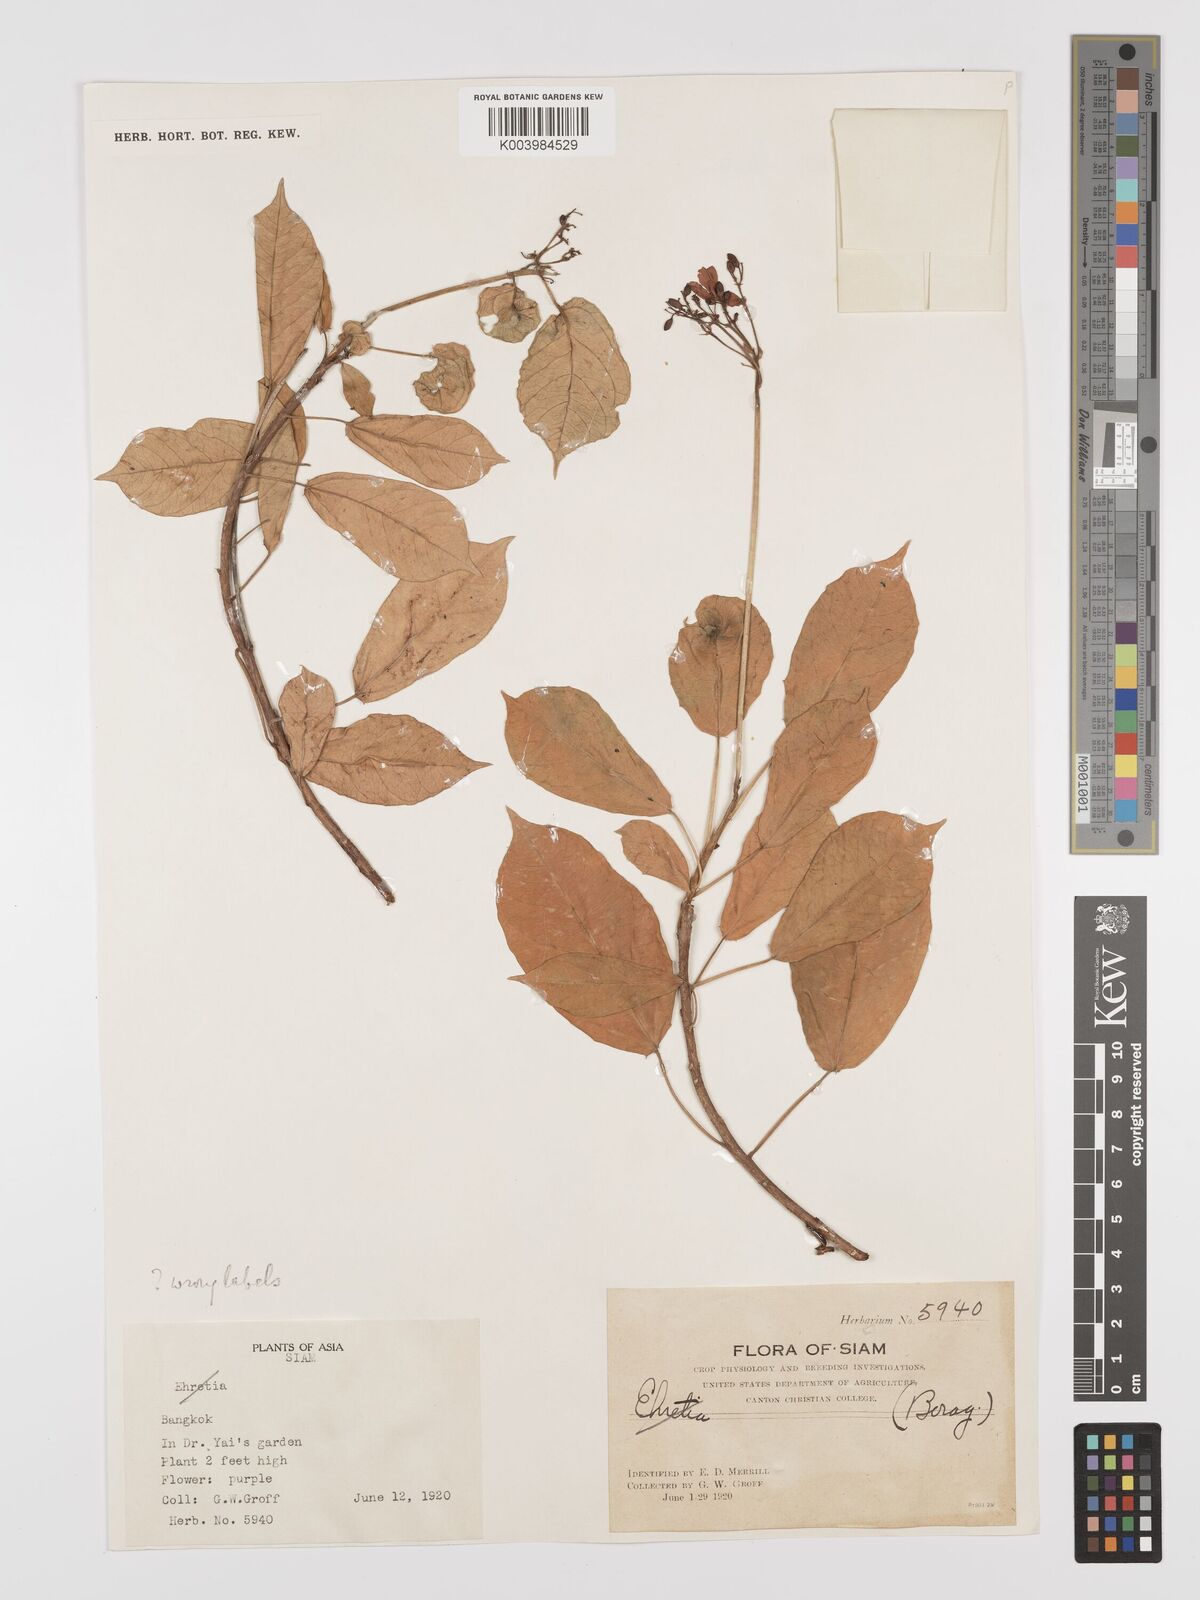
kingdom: Plantae
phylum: Tracheophyta
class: Magnoliopsida
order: Malpighiales
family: Euphorbiaceae
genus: Jatropha
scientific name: Jatropha integerrima
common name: Peregrina
